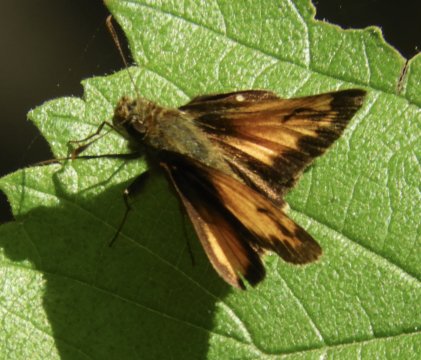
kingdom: Animalia
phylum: Arthropoda
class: Insecta
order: Lepidoptera
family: Hesperiidae
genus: Lon
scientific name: Lon hobomok
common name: Hobomok Skipper
